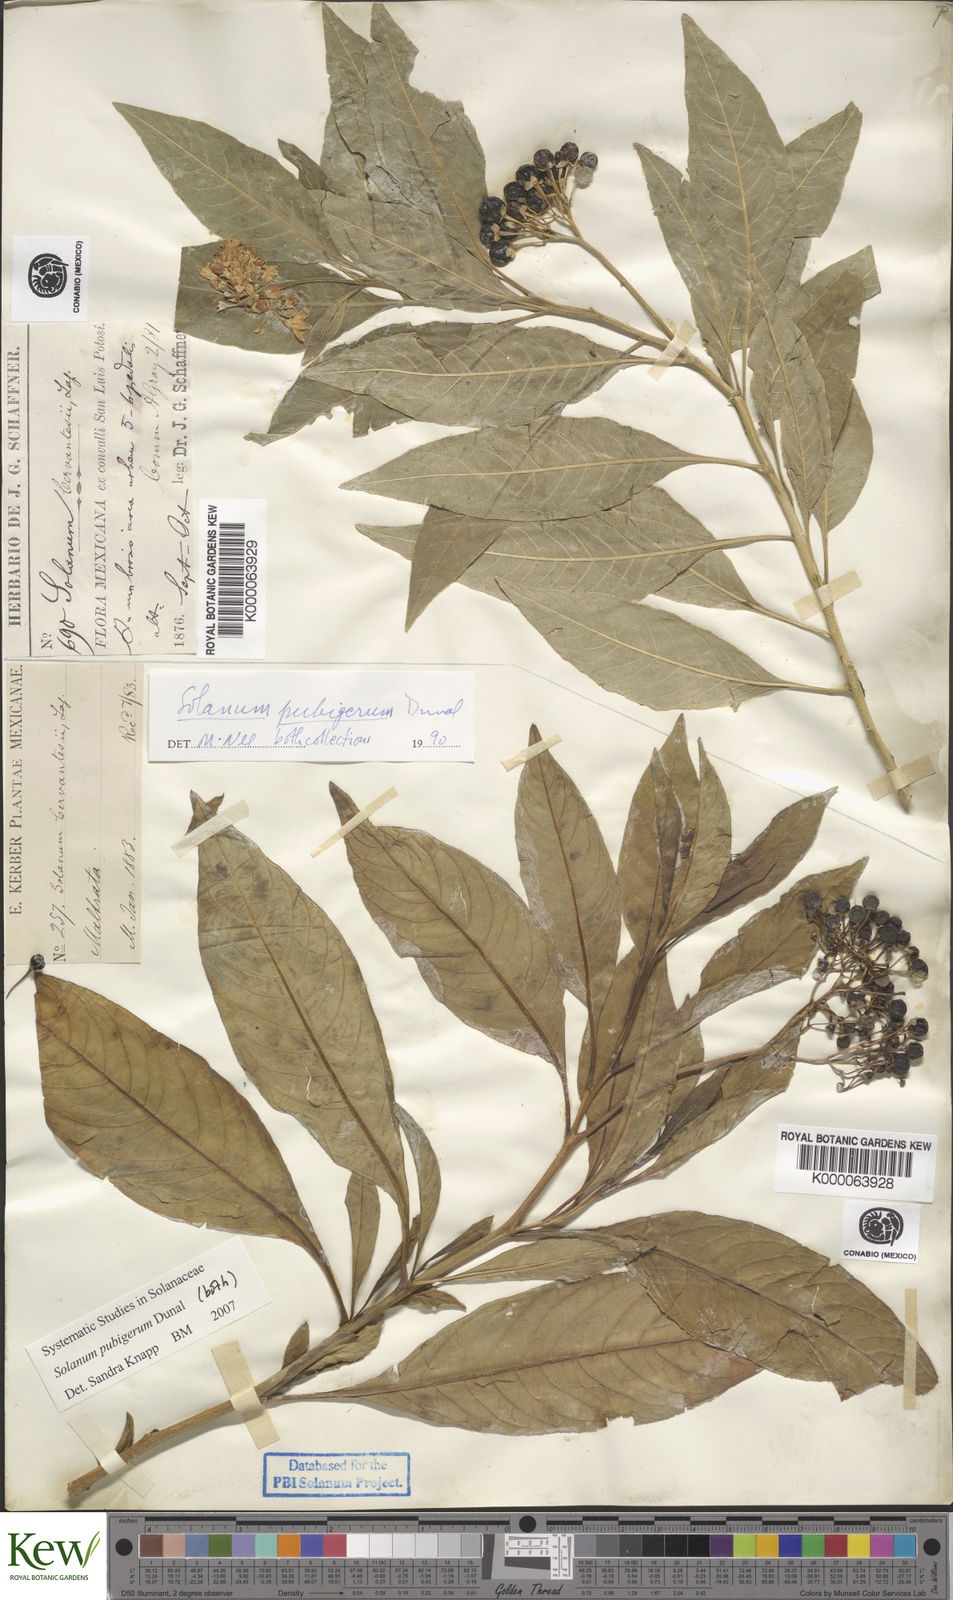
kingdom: Plantae
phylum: Tracheophyta
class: Magnoliopsida
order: Solanales
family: Solanaceae
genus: Solanum
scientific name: Solanum pubigerum
